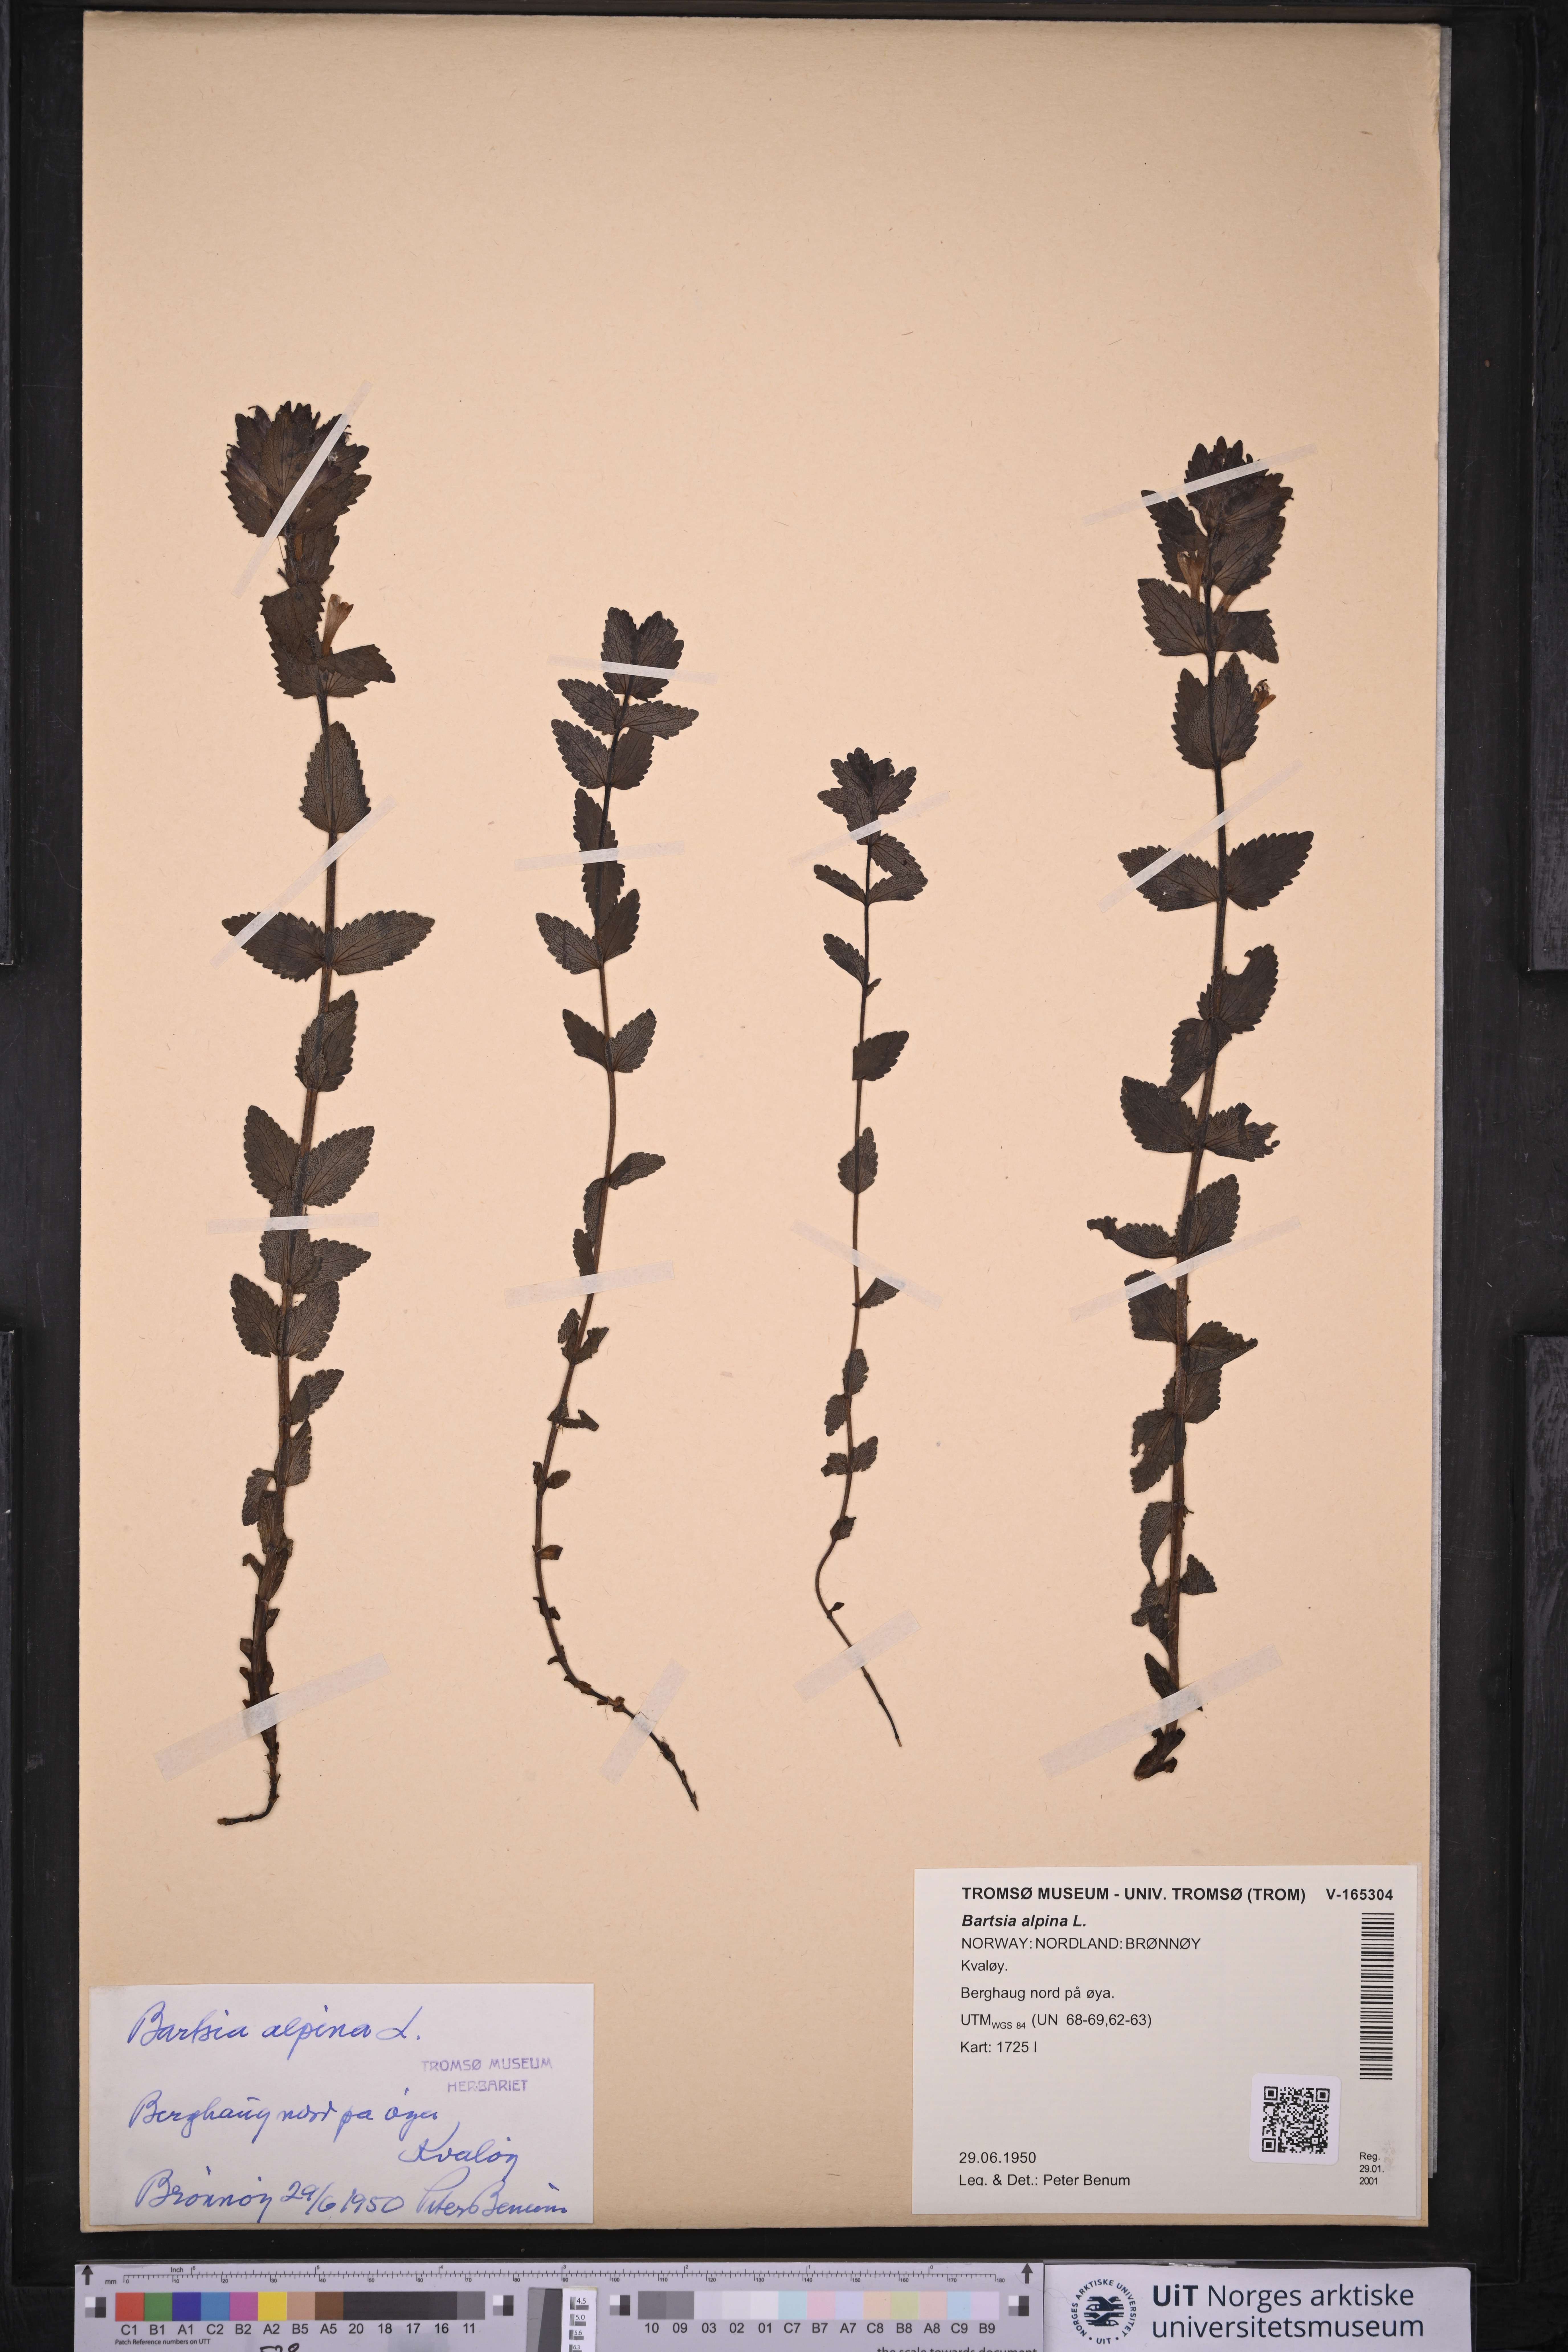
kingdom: Plantae
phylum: Tracheophyta
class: Magnoliopsida
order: Lamiales
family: Orobanchaceae
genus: Bartsia
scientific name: Bartsia alpina
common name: Alpine bartsia
